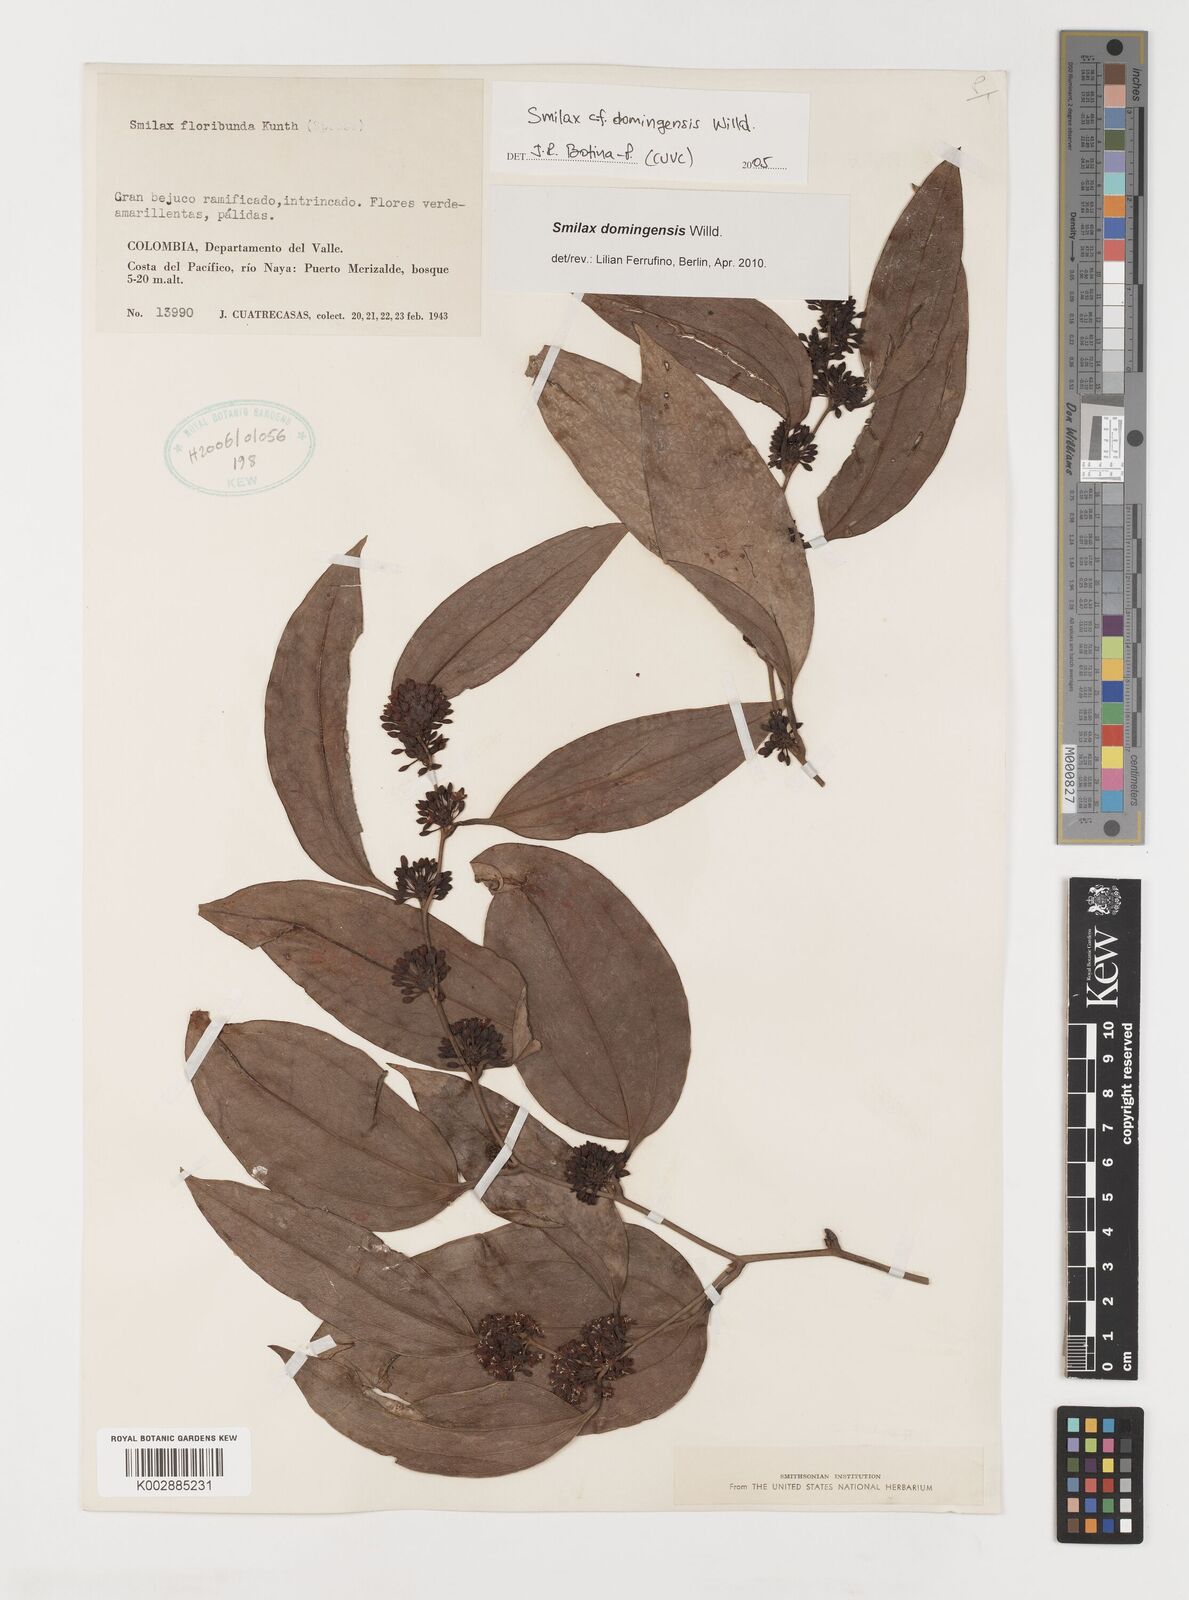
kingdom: Plantae
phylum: Tracheophyta
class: Liliopsida
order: Liliales
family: Smilacaceae
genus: Smilax
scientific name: Smilax domingensis
